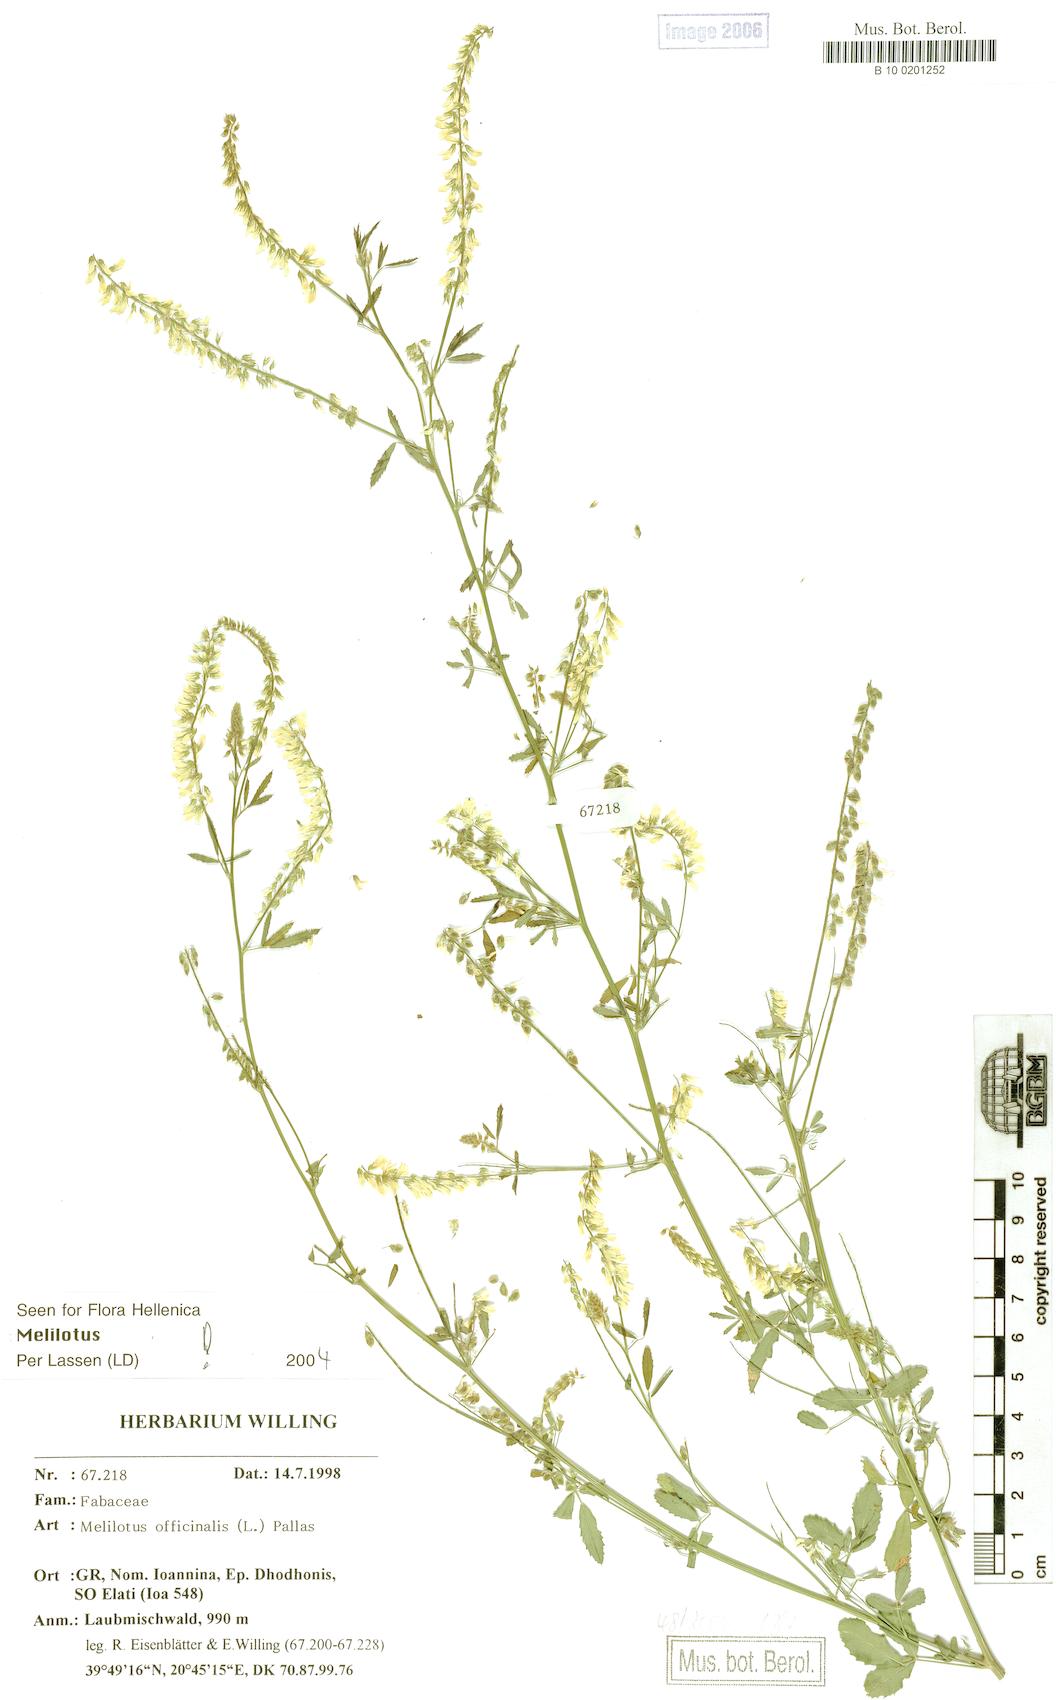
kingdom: Plantae
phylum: Tracheophyta
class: Magnoliopsida
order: Fabales
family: Fabaceae
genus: Melilotus
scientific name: Melilotus officinalis
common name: Sweetclover
